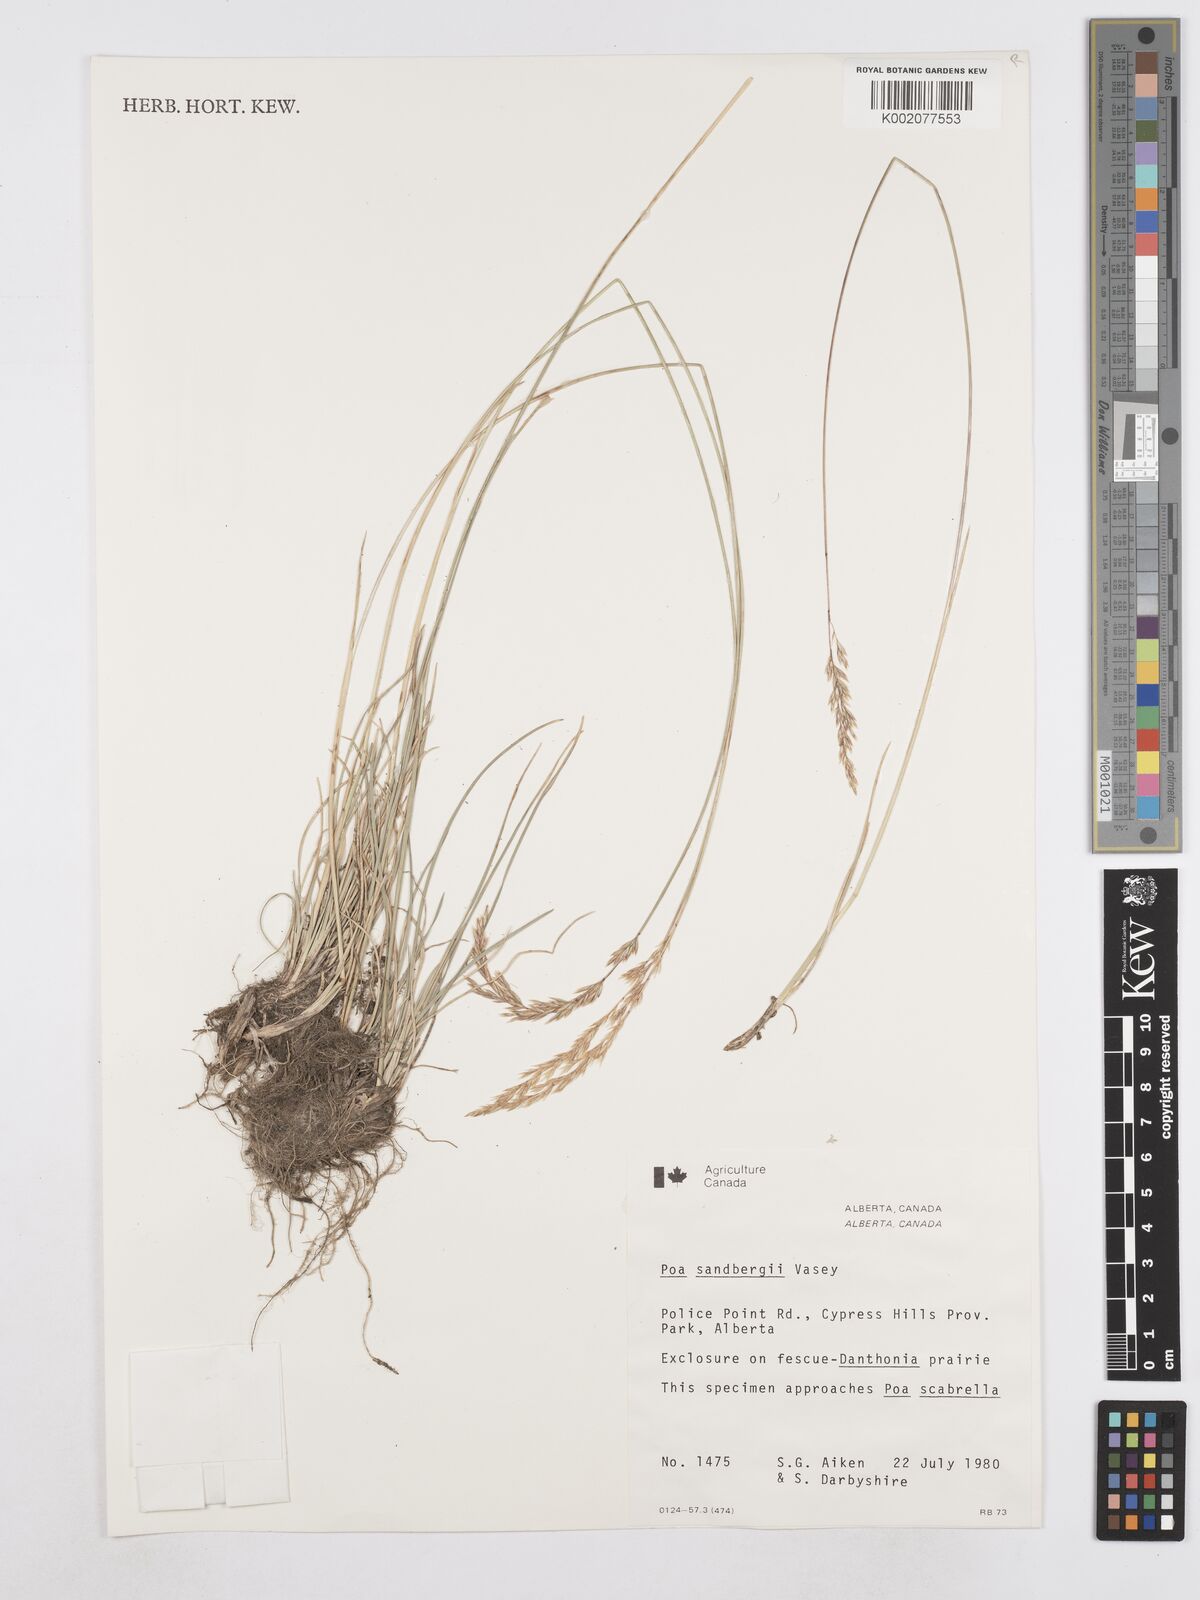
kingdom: Plantae
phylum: Tracheophyta
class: Liliopsida
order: Poales
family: Poaceae
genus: Poa
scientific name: Poa secunda
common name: Sandberg bluegrass
